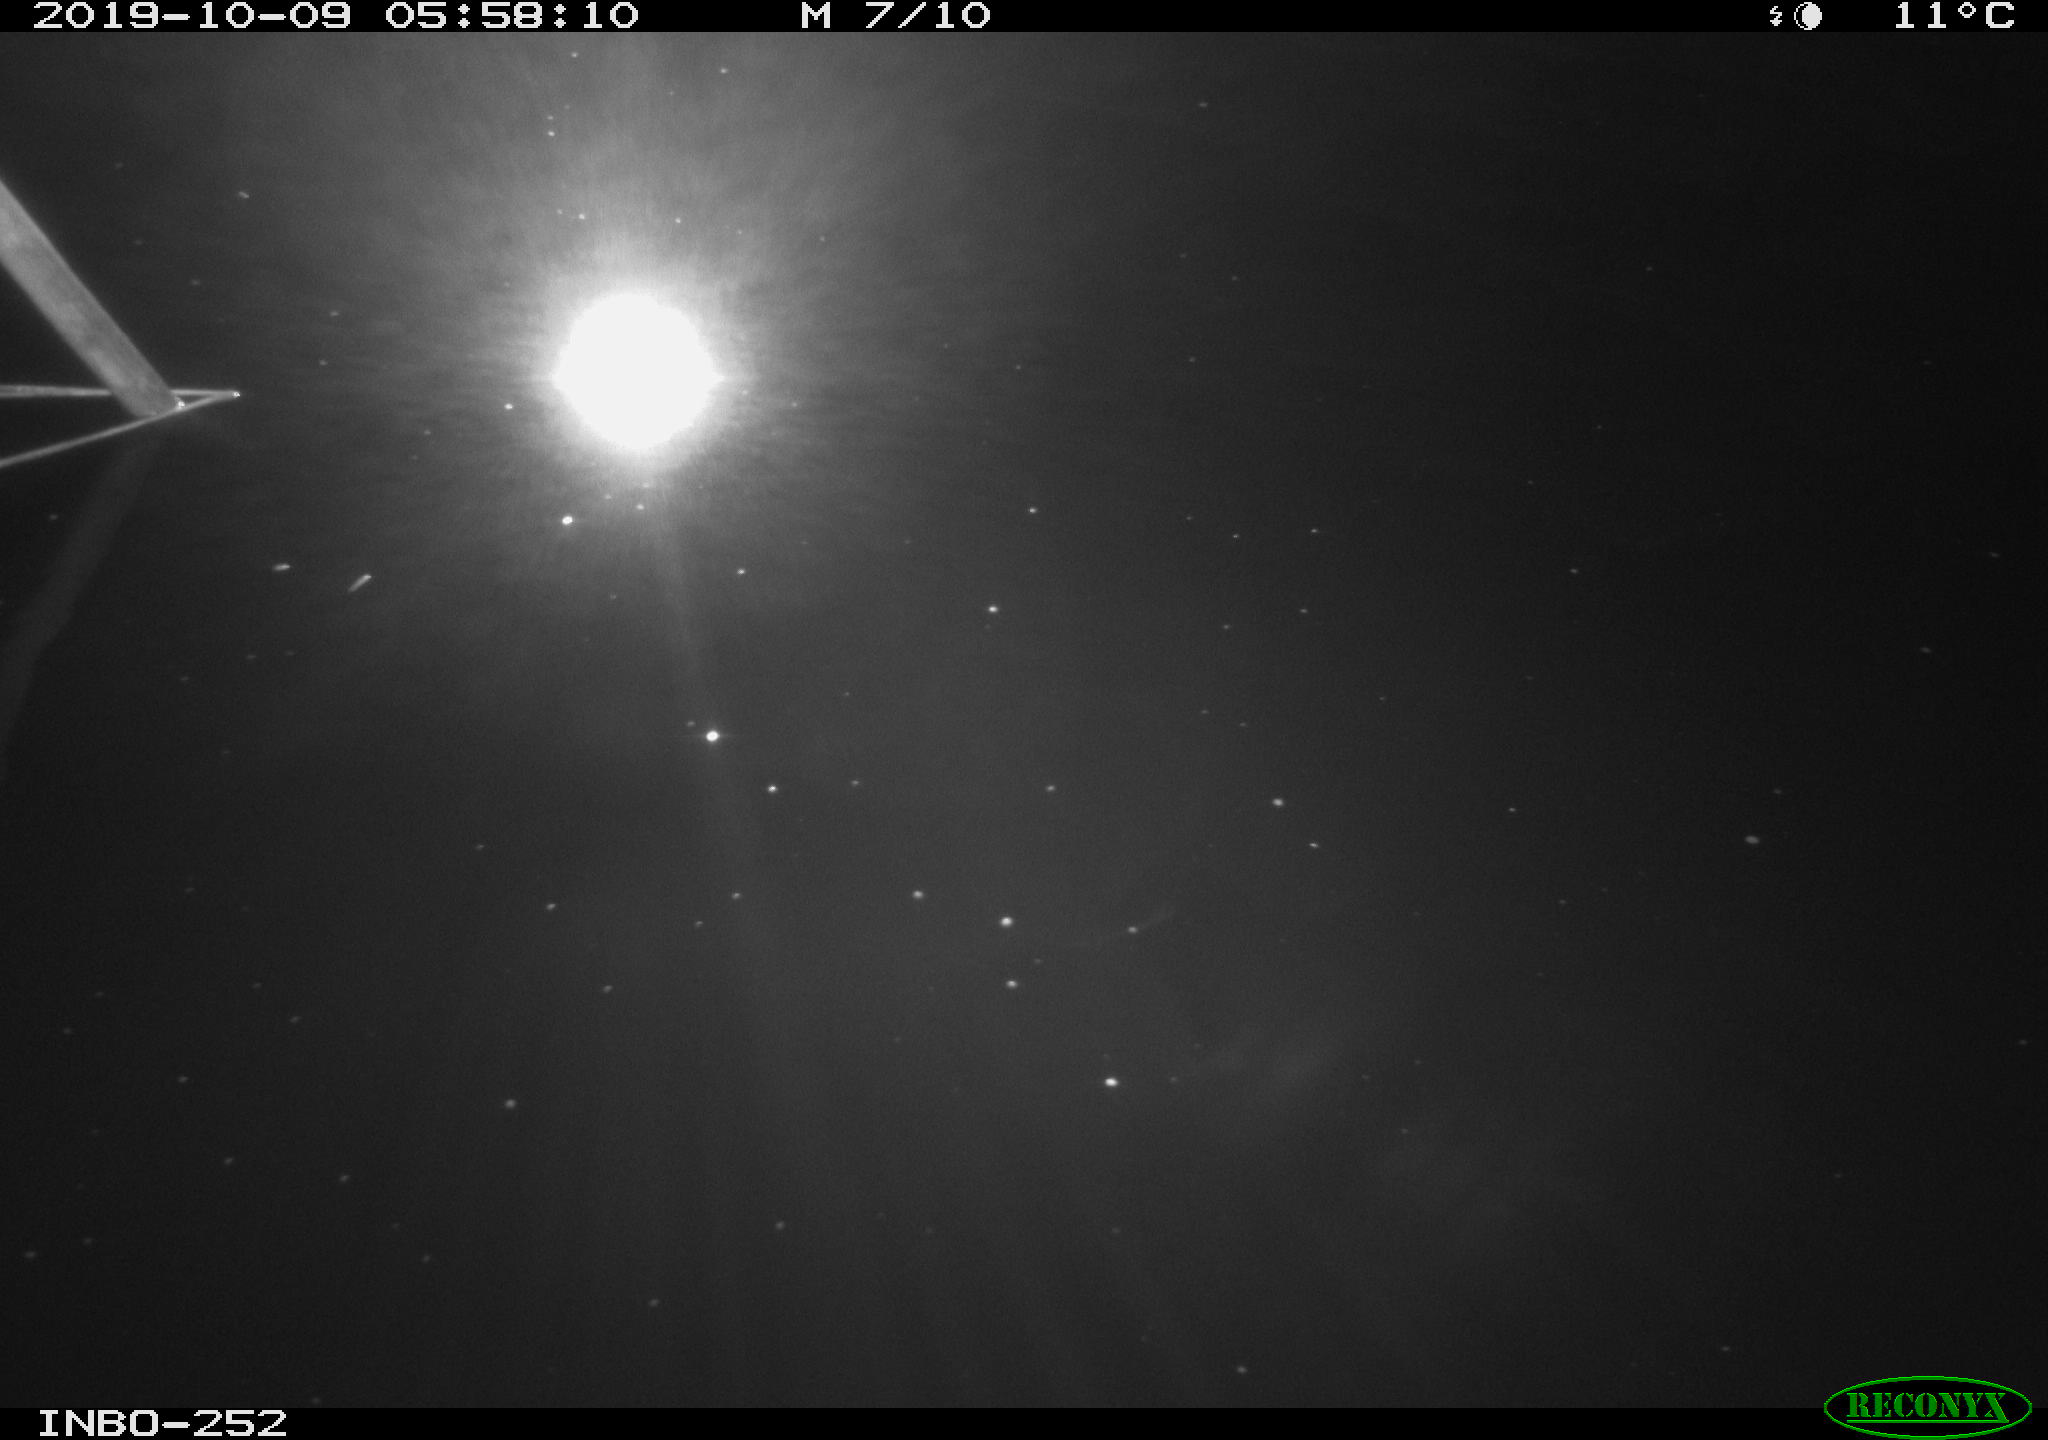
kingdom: Animalia
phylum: Chordata
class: Aves
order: Anseriformes
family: Anatidae
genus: Anas
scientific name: Anas platyrhynchos
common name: Mallard
